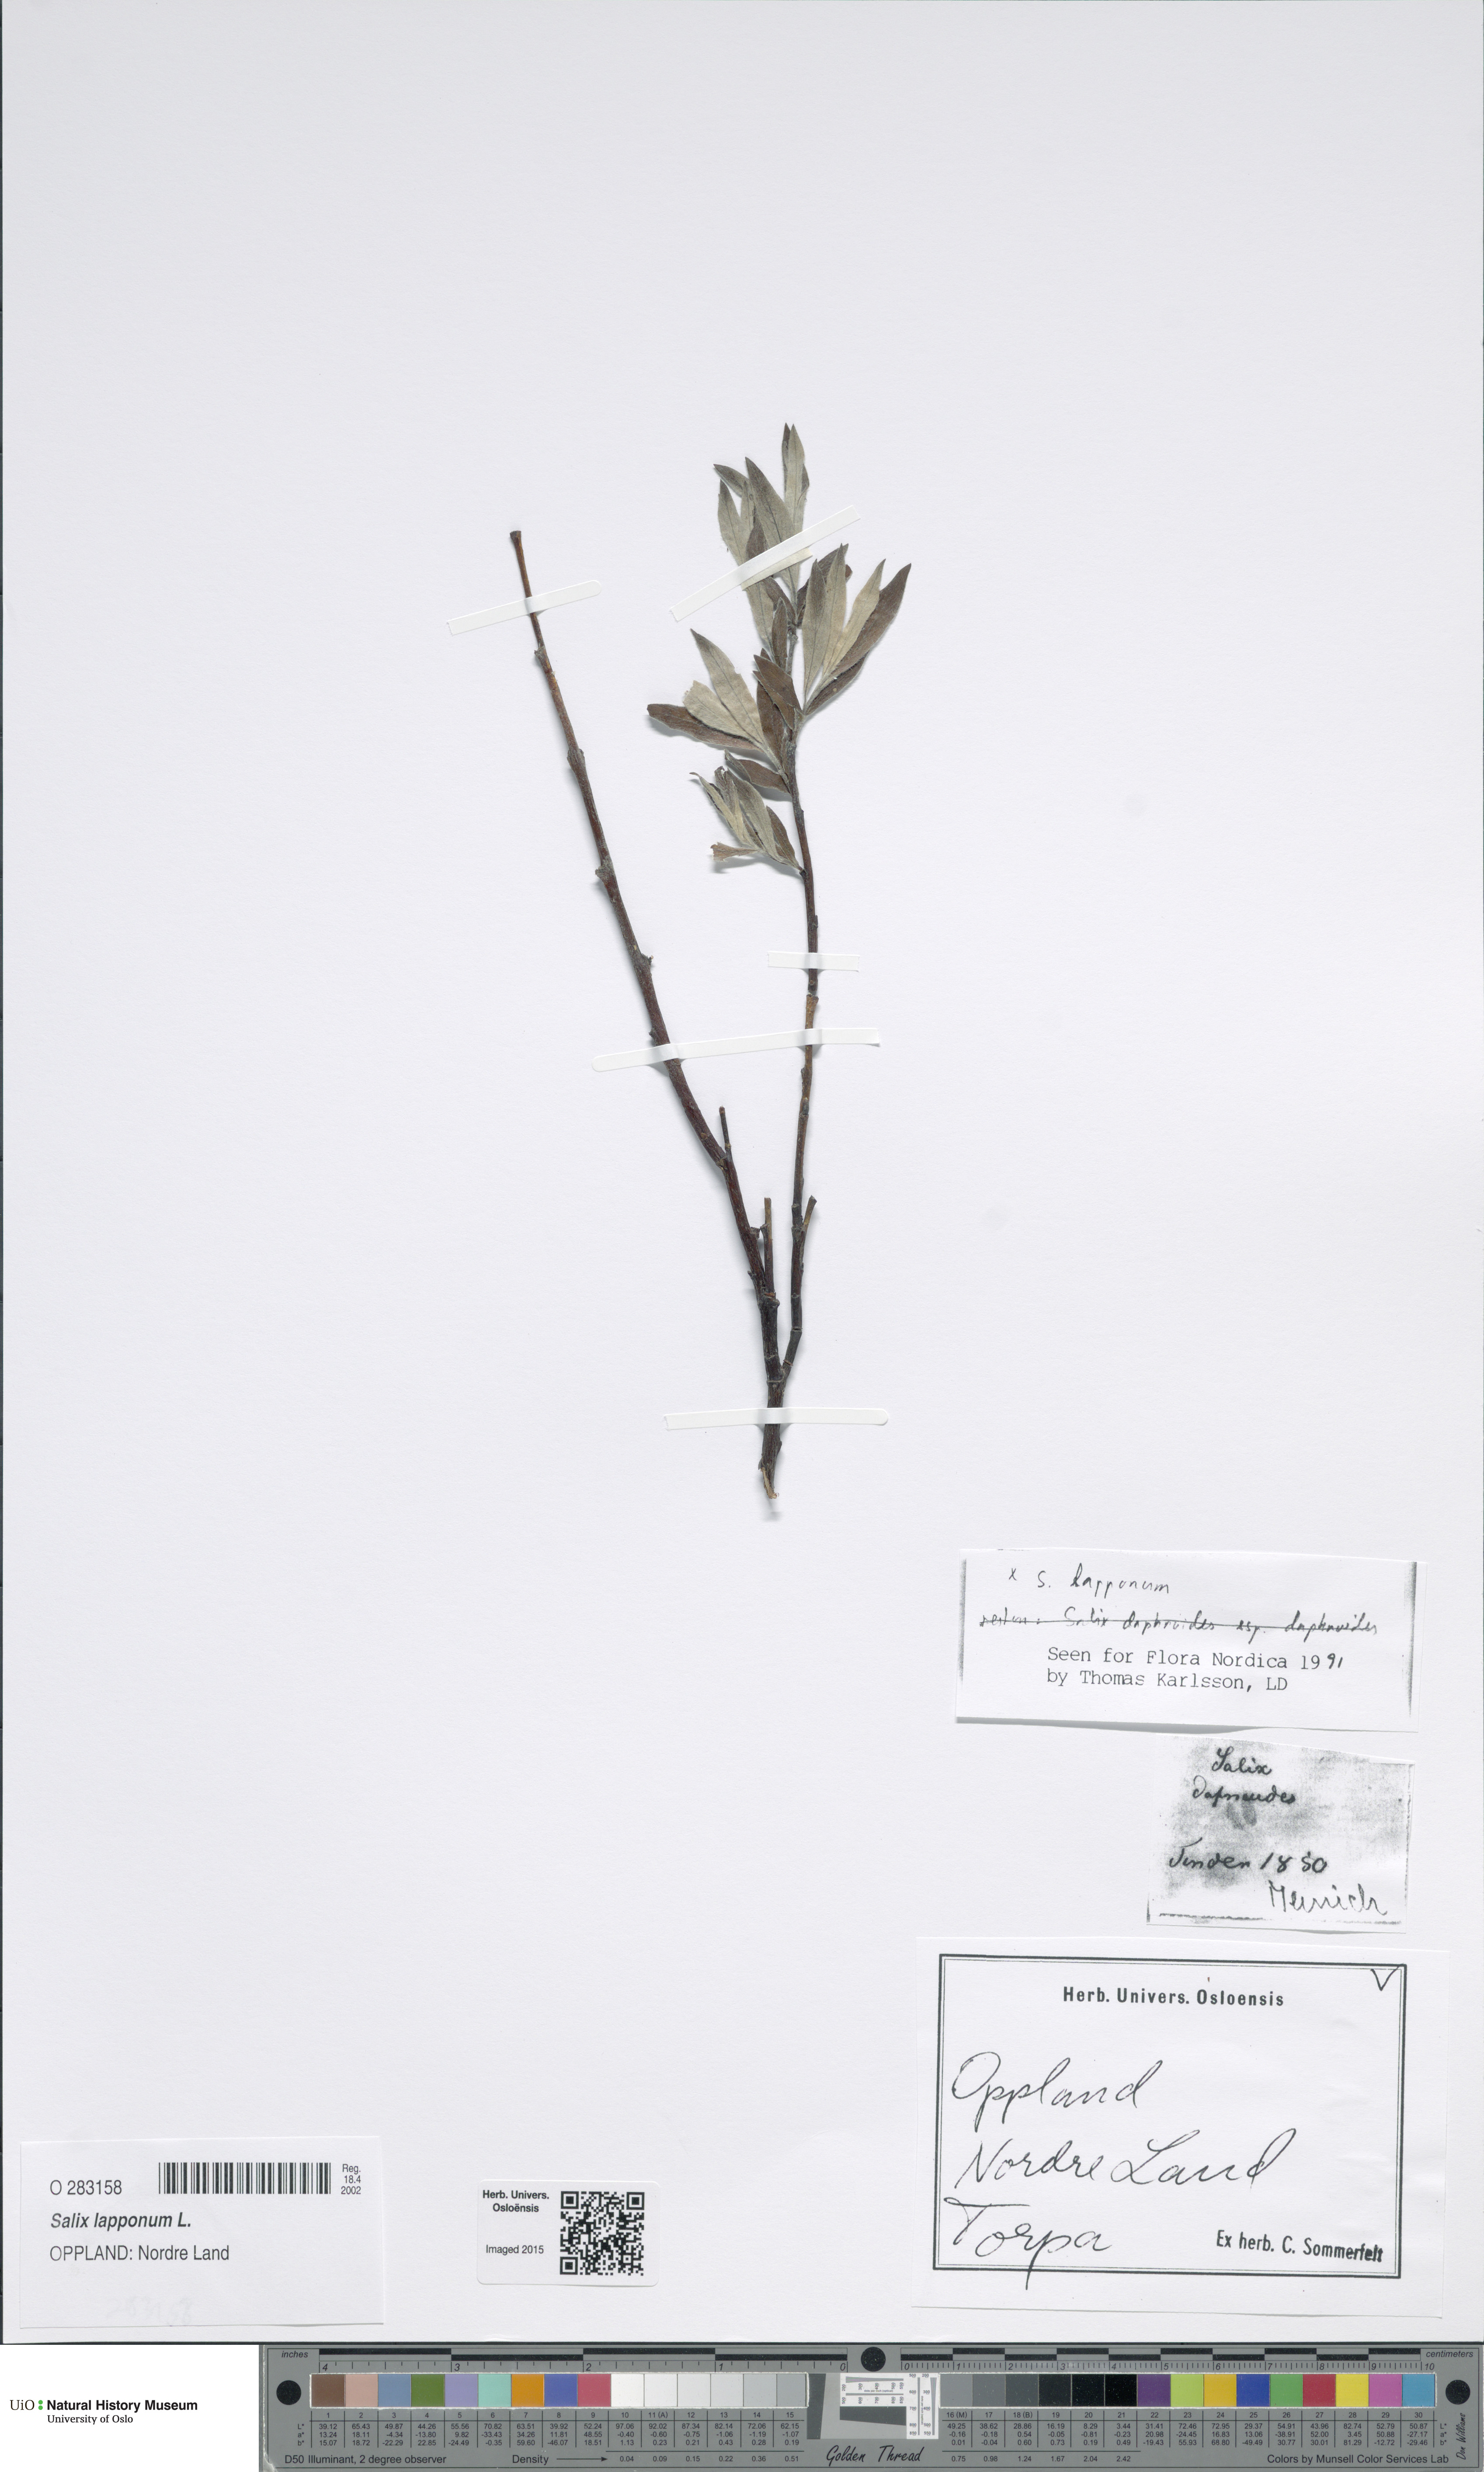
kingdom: Plantae
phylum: Tracheophyta
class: Magnoliopsida
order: Malpighiales
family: Salicaceae
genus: Salix
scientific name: Salix lapponum
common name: Downy willow
